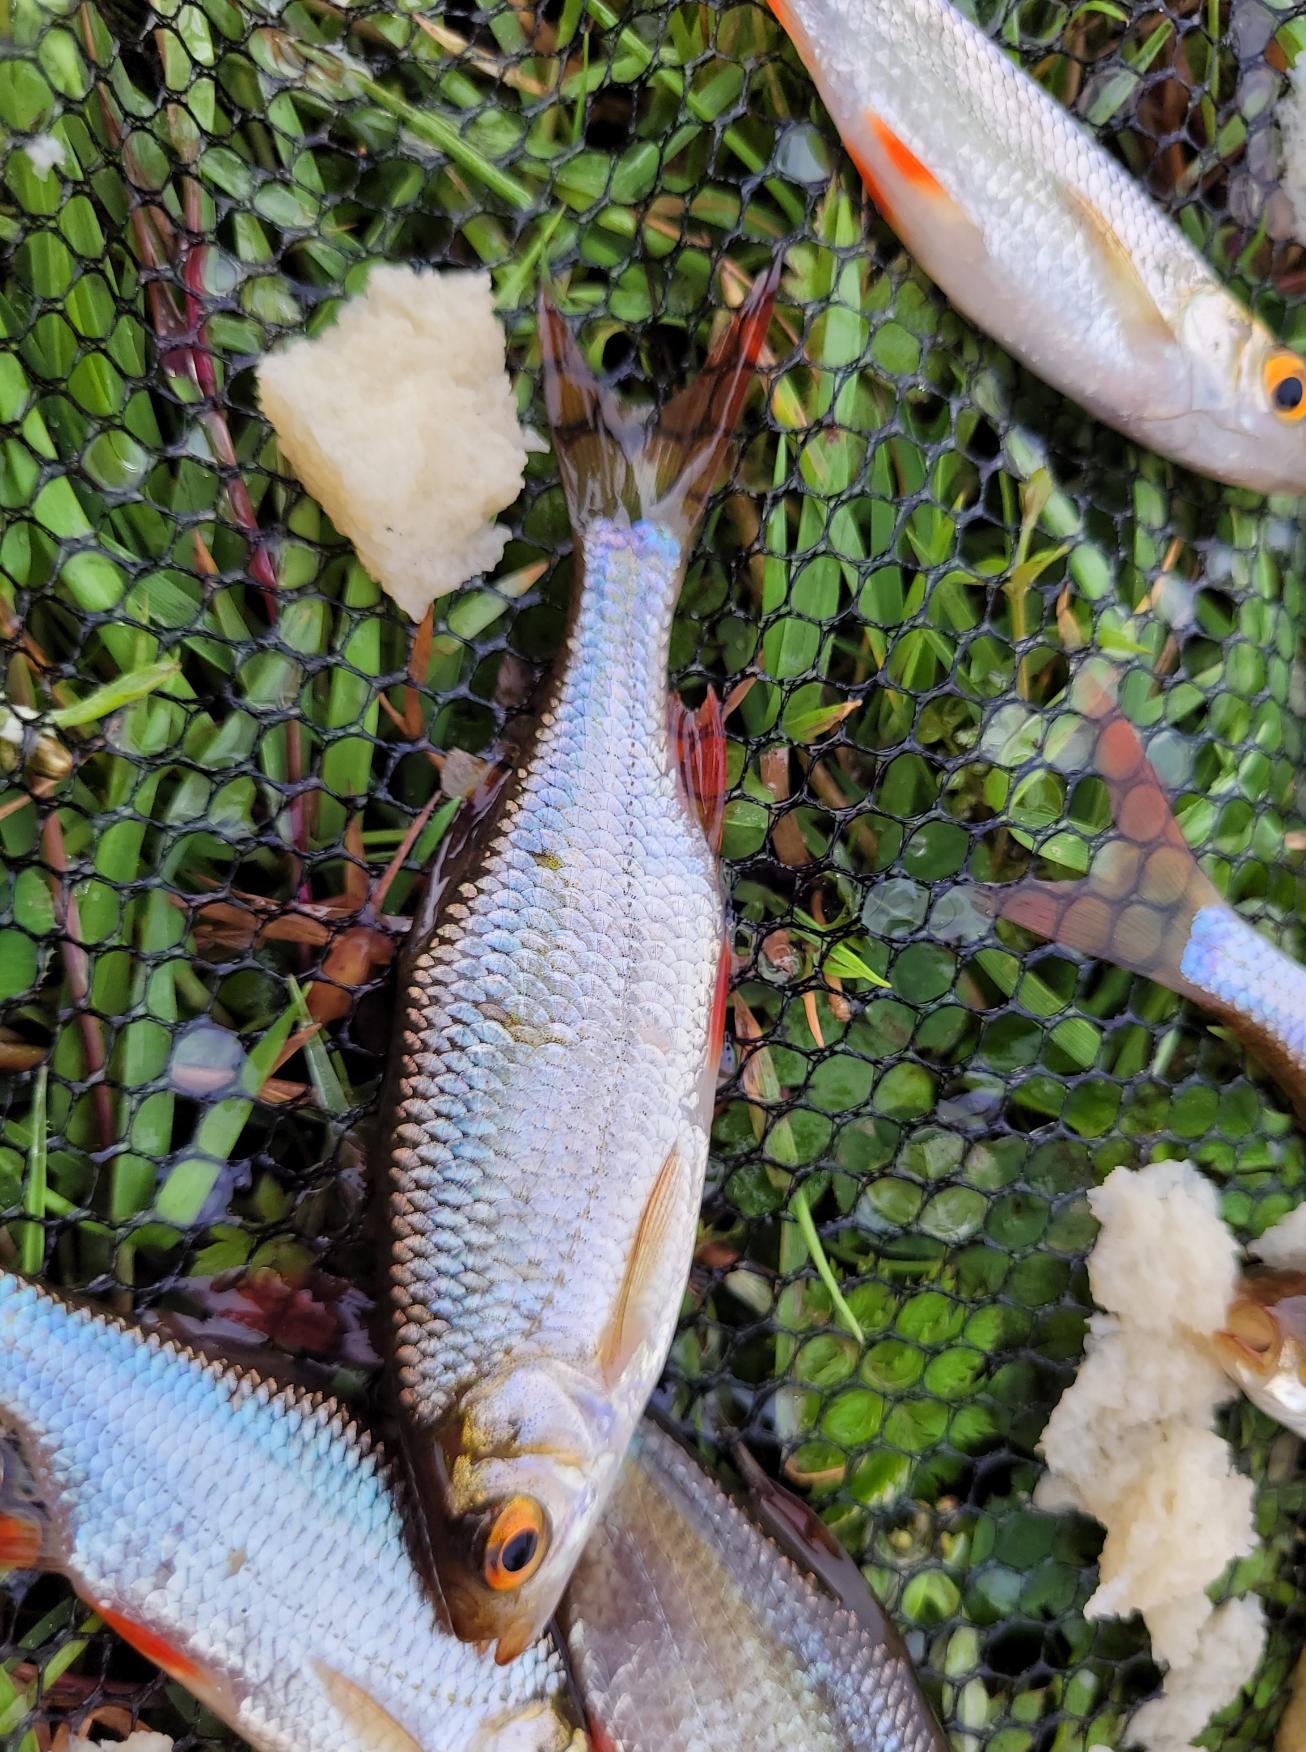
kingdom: Animalia
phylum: Chordata
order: Cypriniformes
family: Cyprinidae
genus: Scardinius
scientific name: Scardinius erythrophthalmus
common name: Rudskalle
